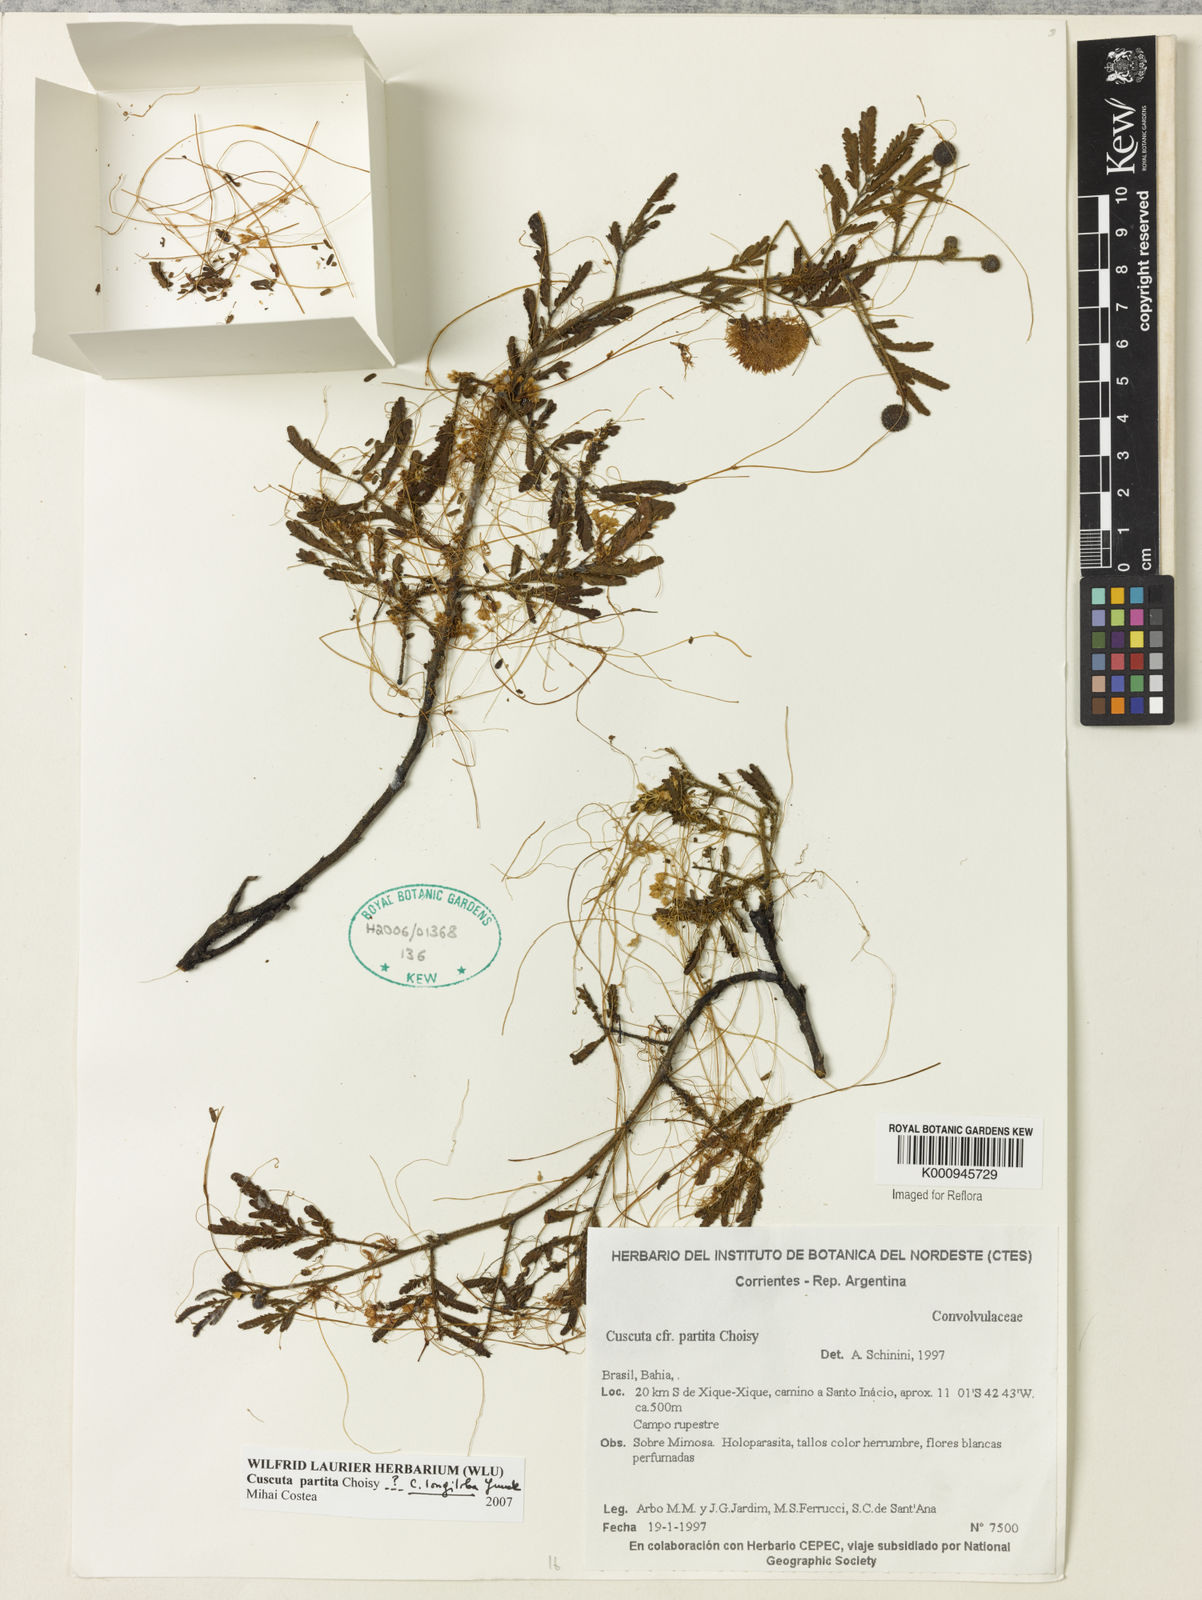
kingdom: Plantae
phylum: Tracheophyta
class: Magnoliopsida
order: Solanales
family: Convolvulaceae
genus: Cuscuta
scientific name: Cuscuta partita
